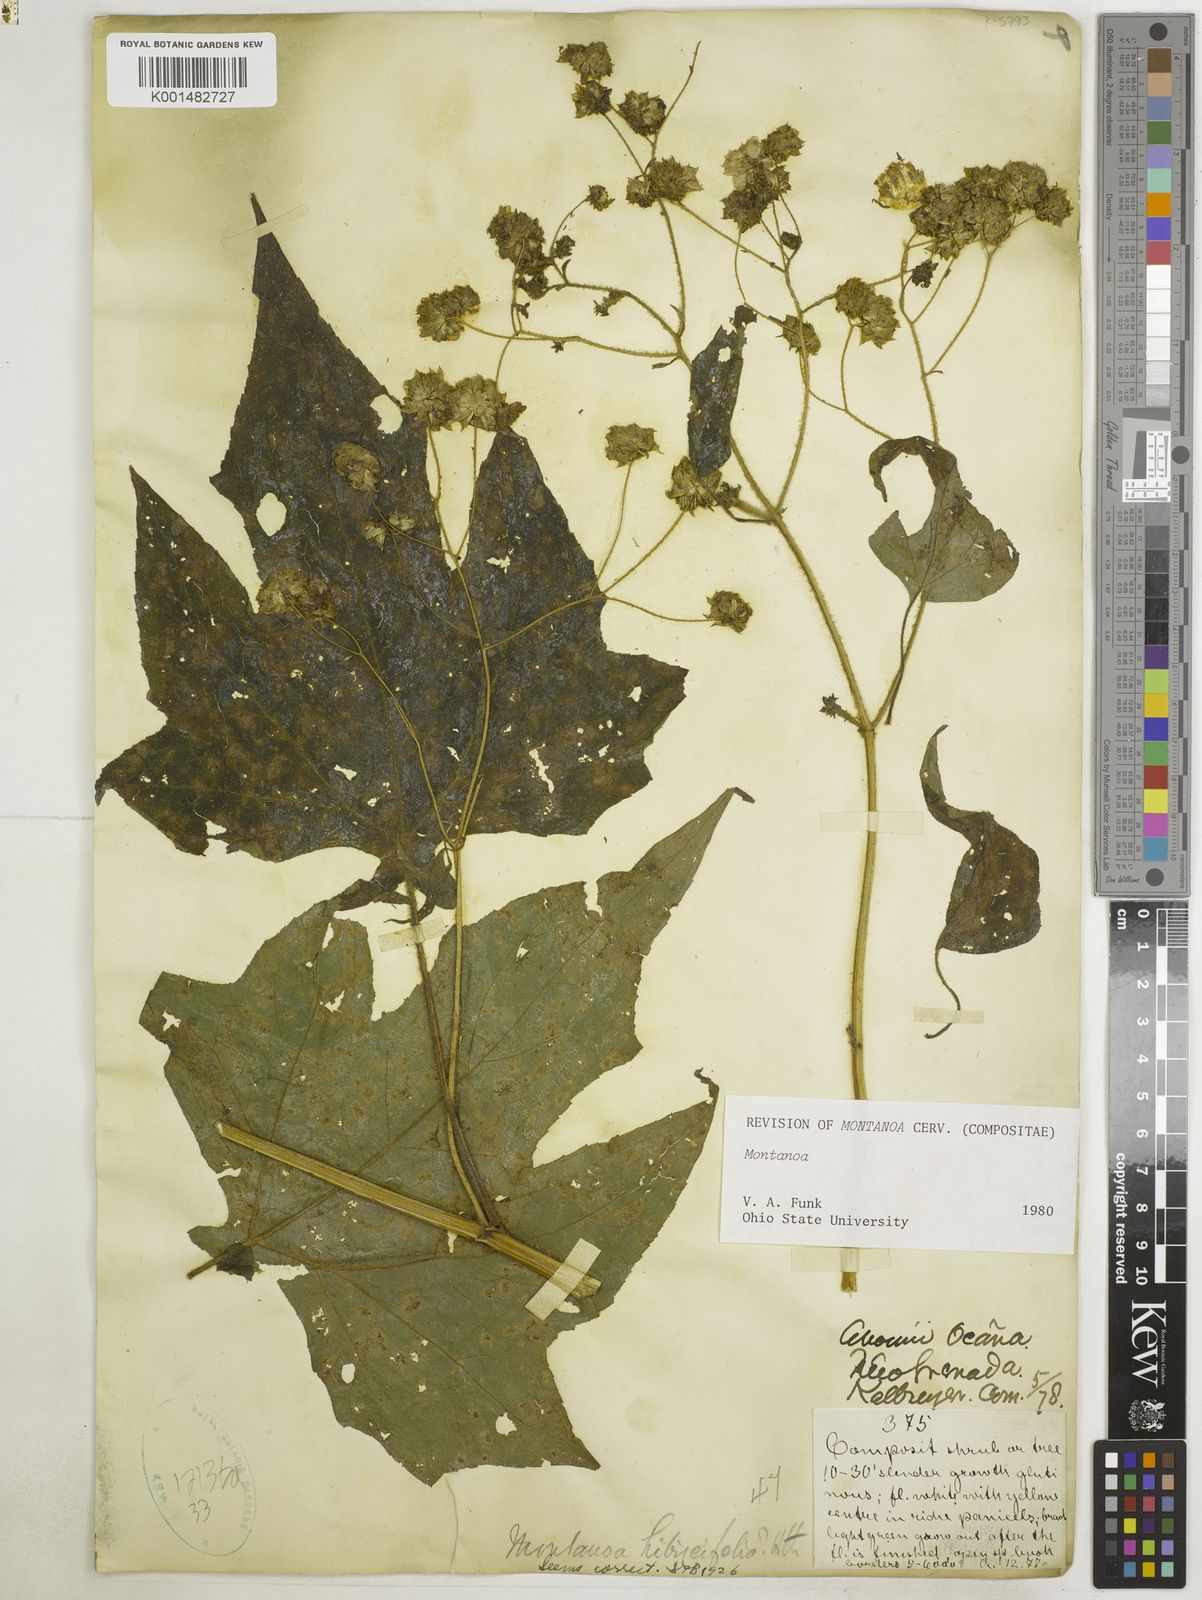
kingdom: Plantae
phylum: Tracheophyta
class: Magnoliopsida
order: Asterales
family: Asteraceae
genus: Montanoa
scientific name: Montanoa hibiscifolia
